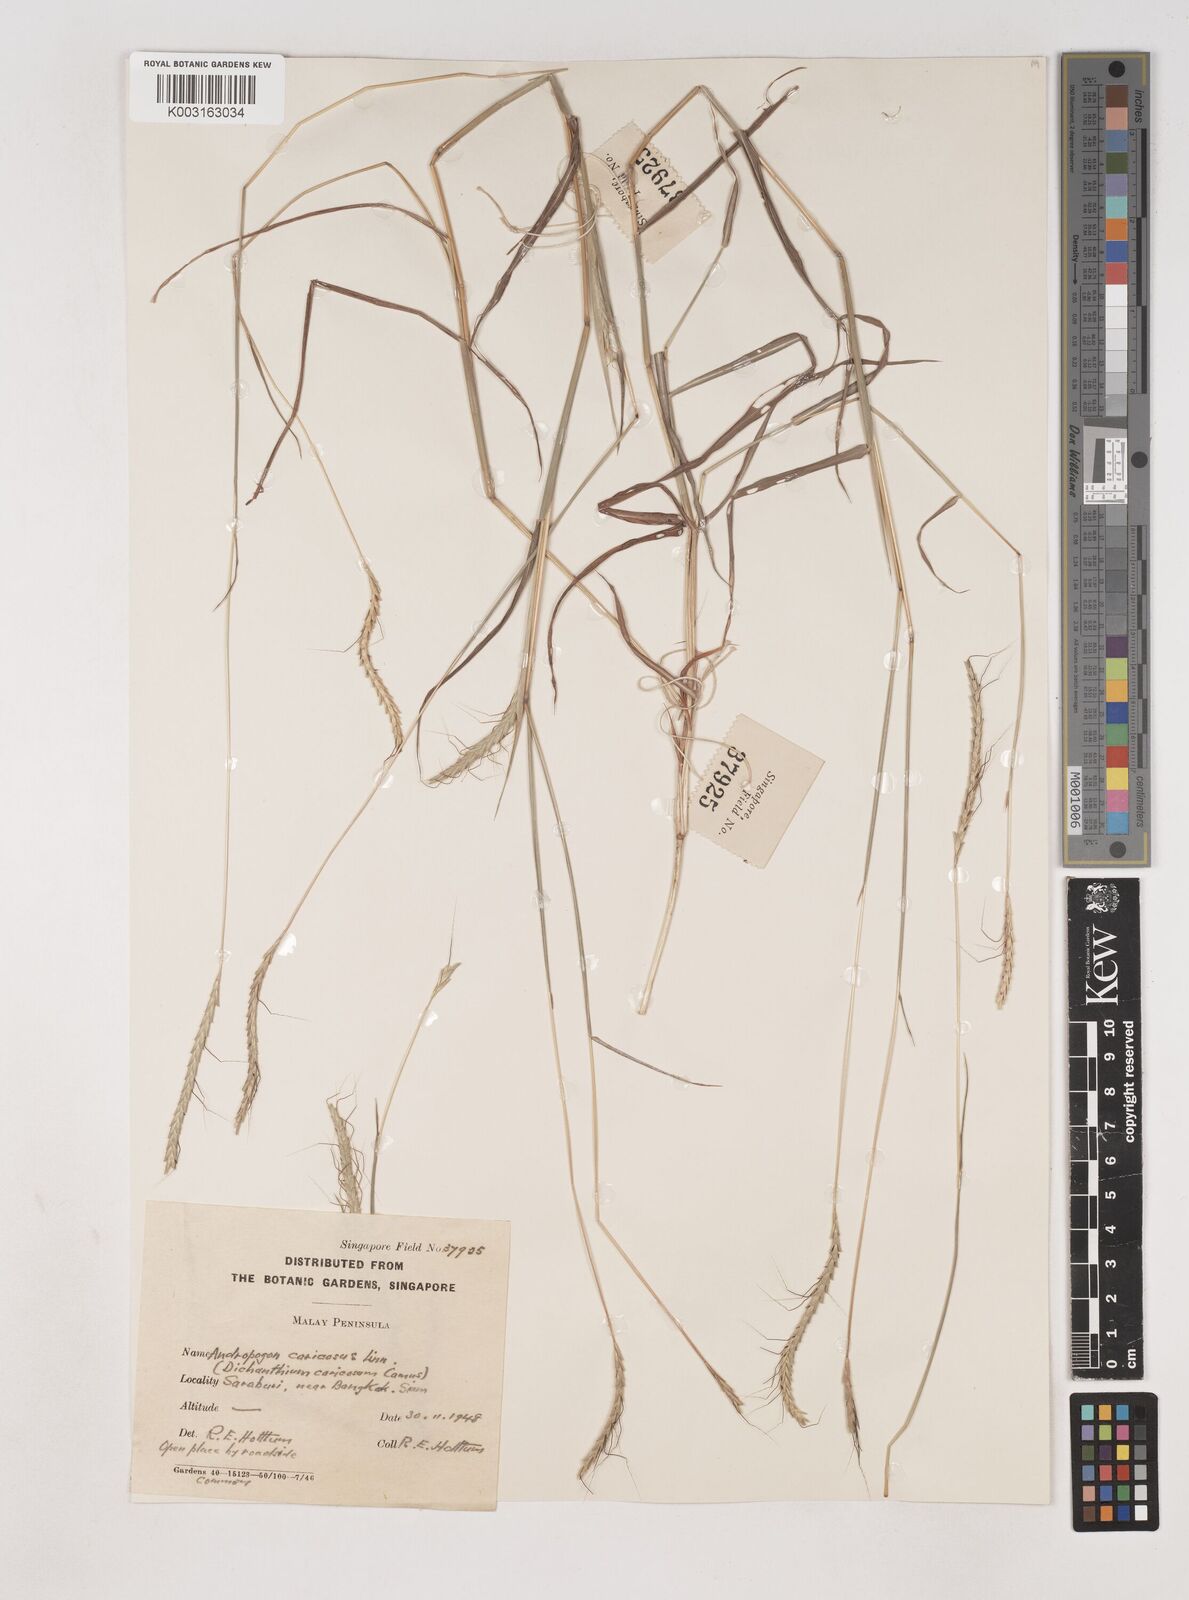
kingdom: Plantae
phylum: Tracheophyta
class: Liliopsida
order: Poales
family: Poaceae
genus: Dichanthium
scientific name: Dichanthium caricosum
